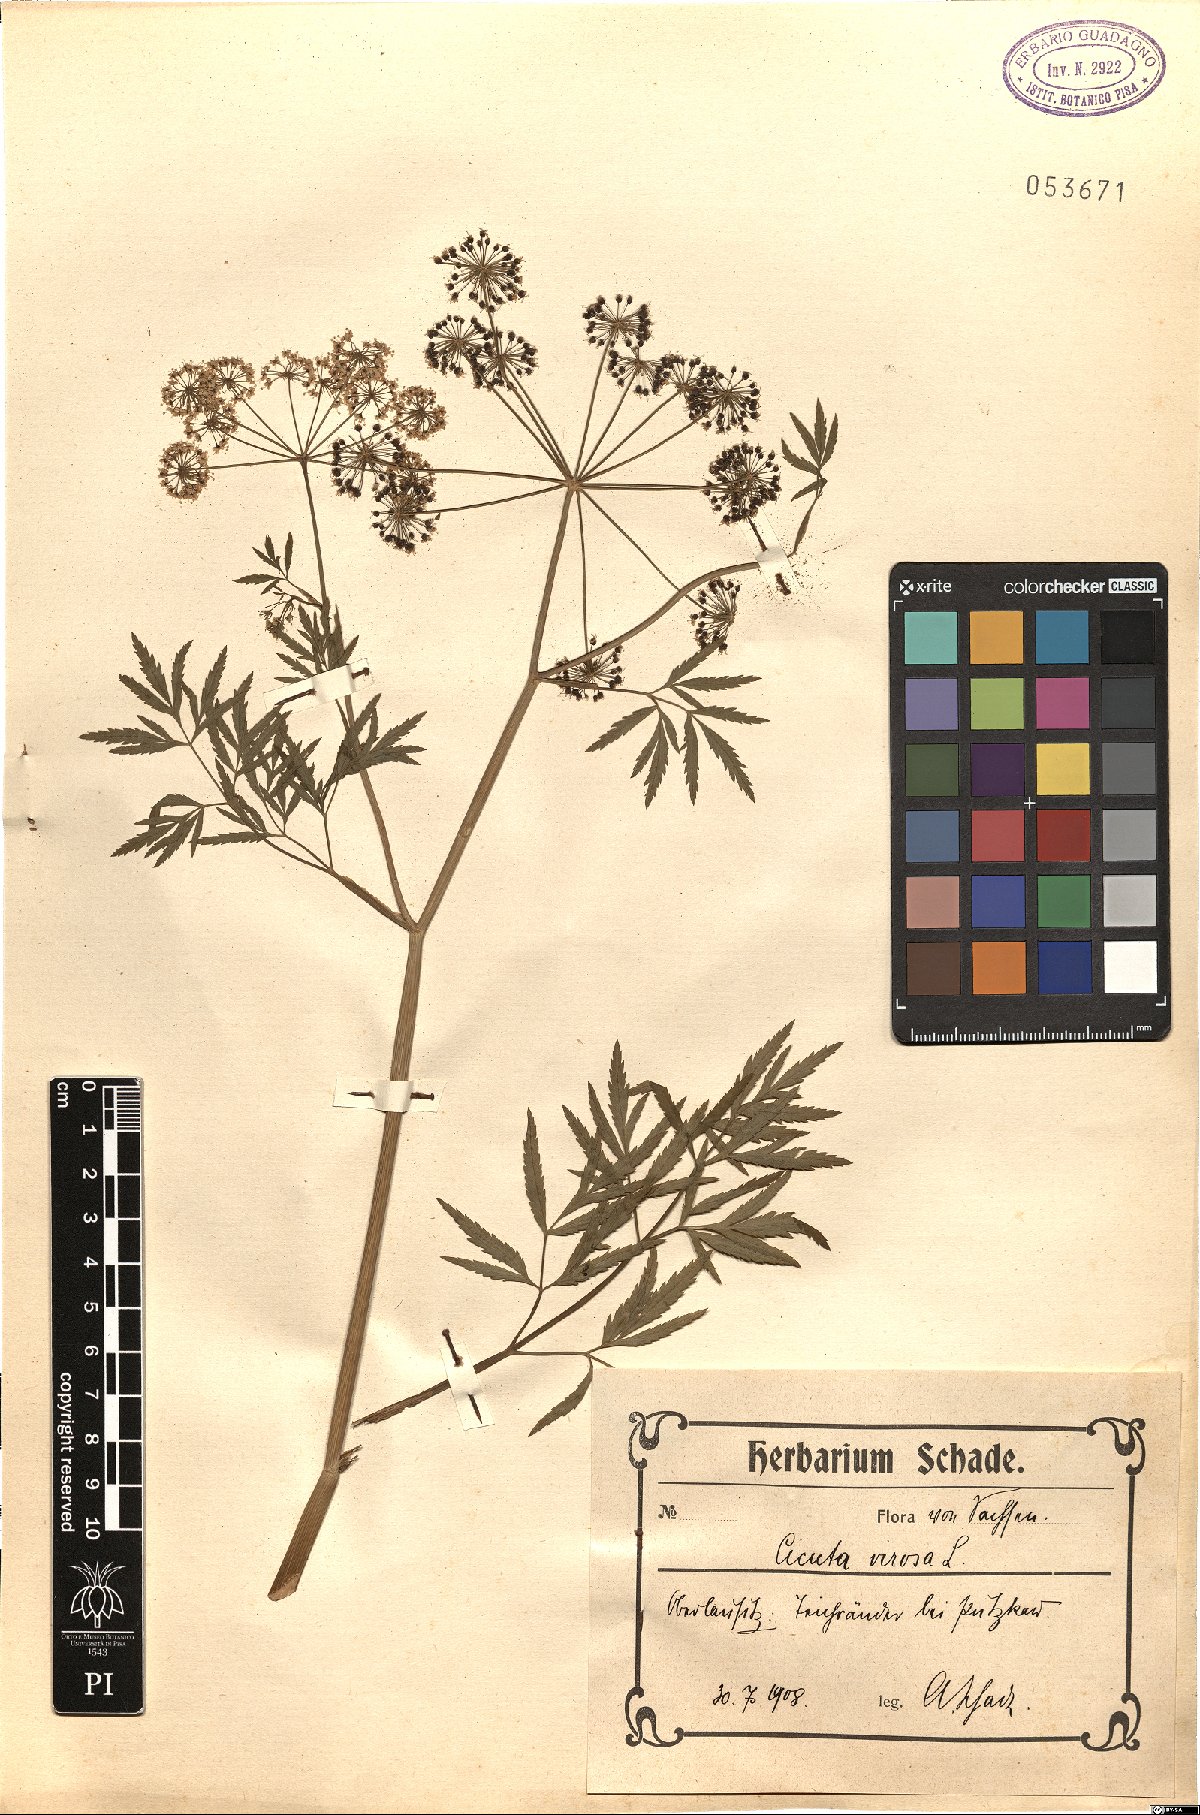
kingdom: Plantae
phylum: Tracheophyta
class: Magnoliopsida
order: Apiales
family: Apiaceae
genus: Cicuta
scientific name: Cicuta virosa
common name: Cowbane
